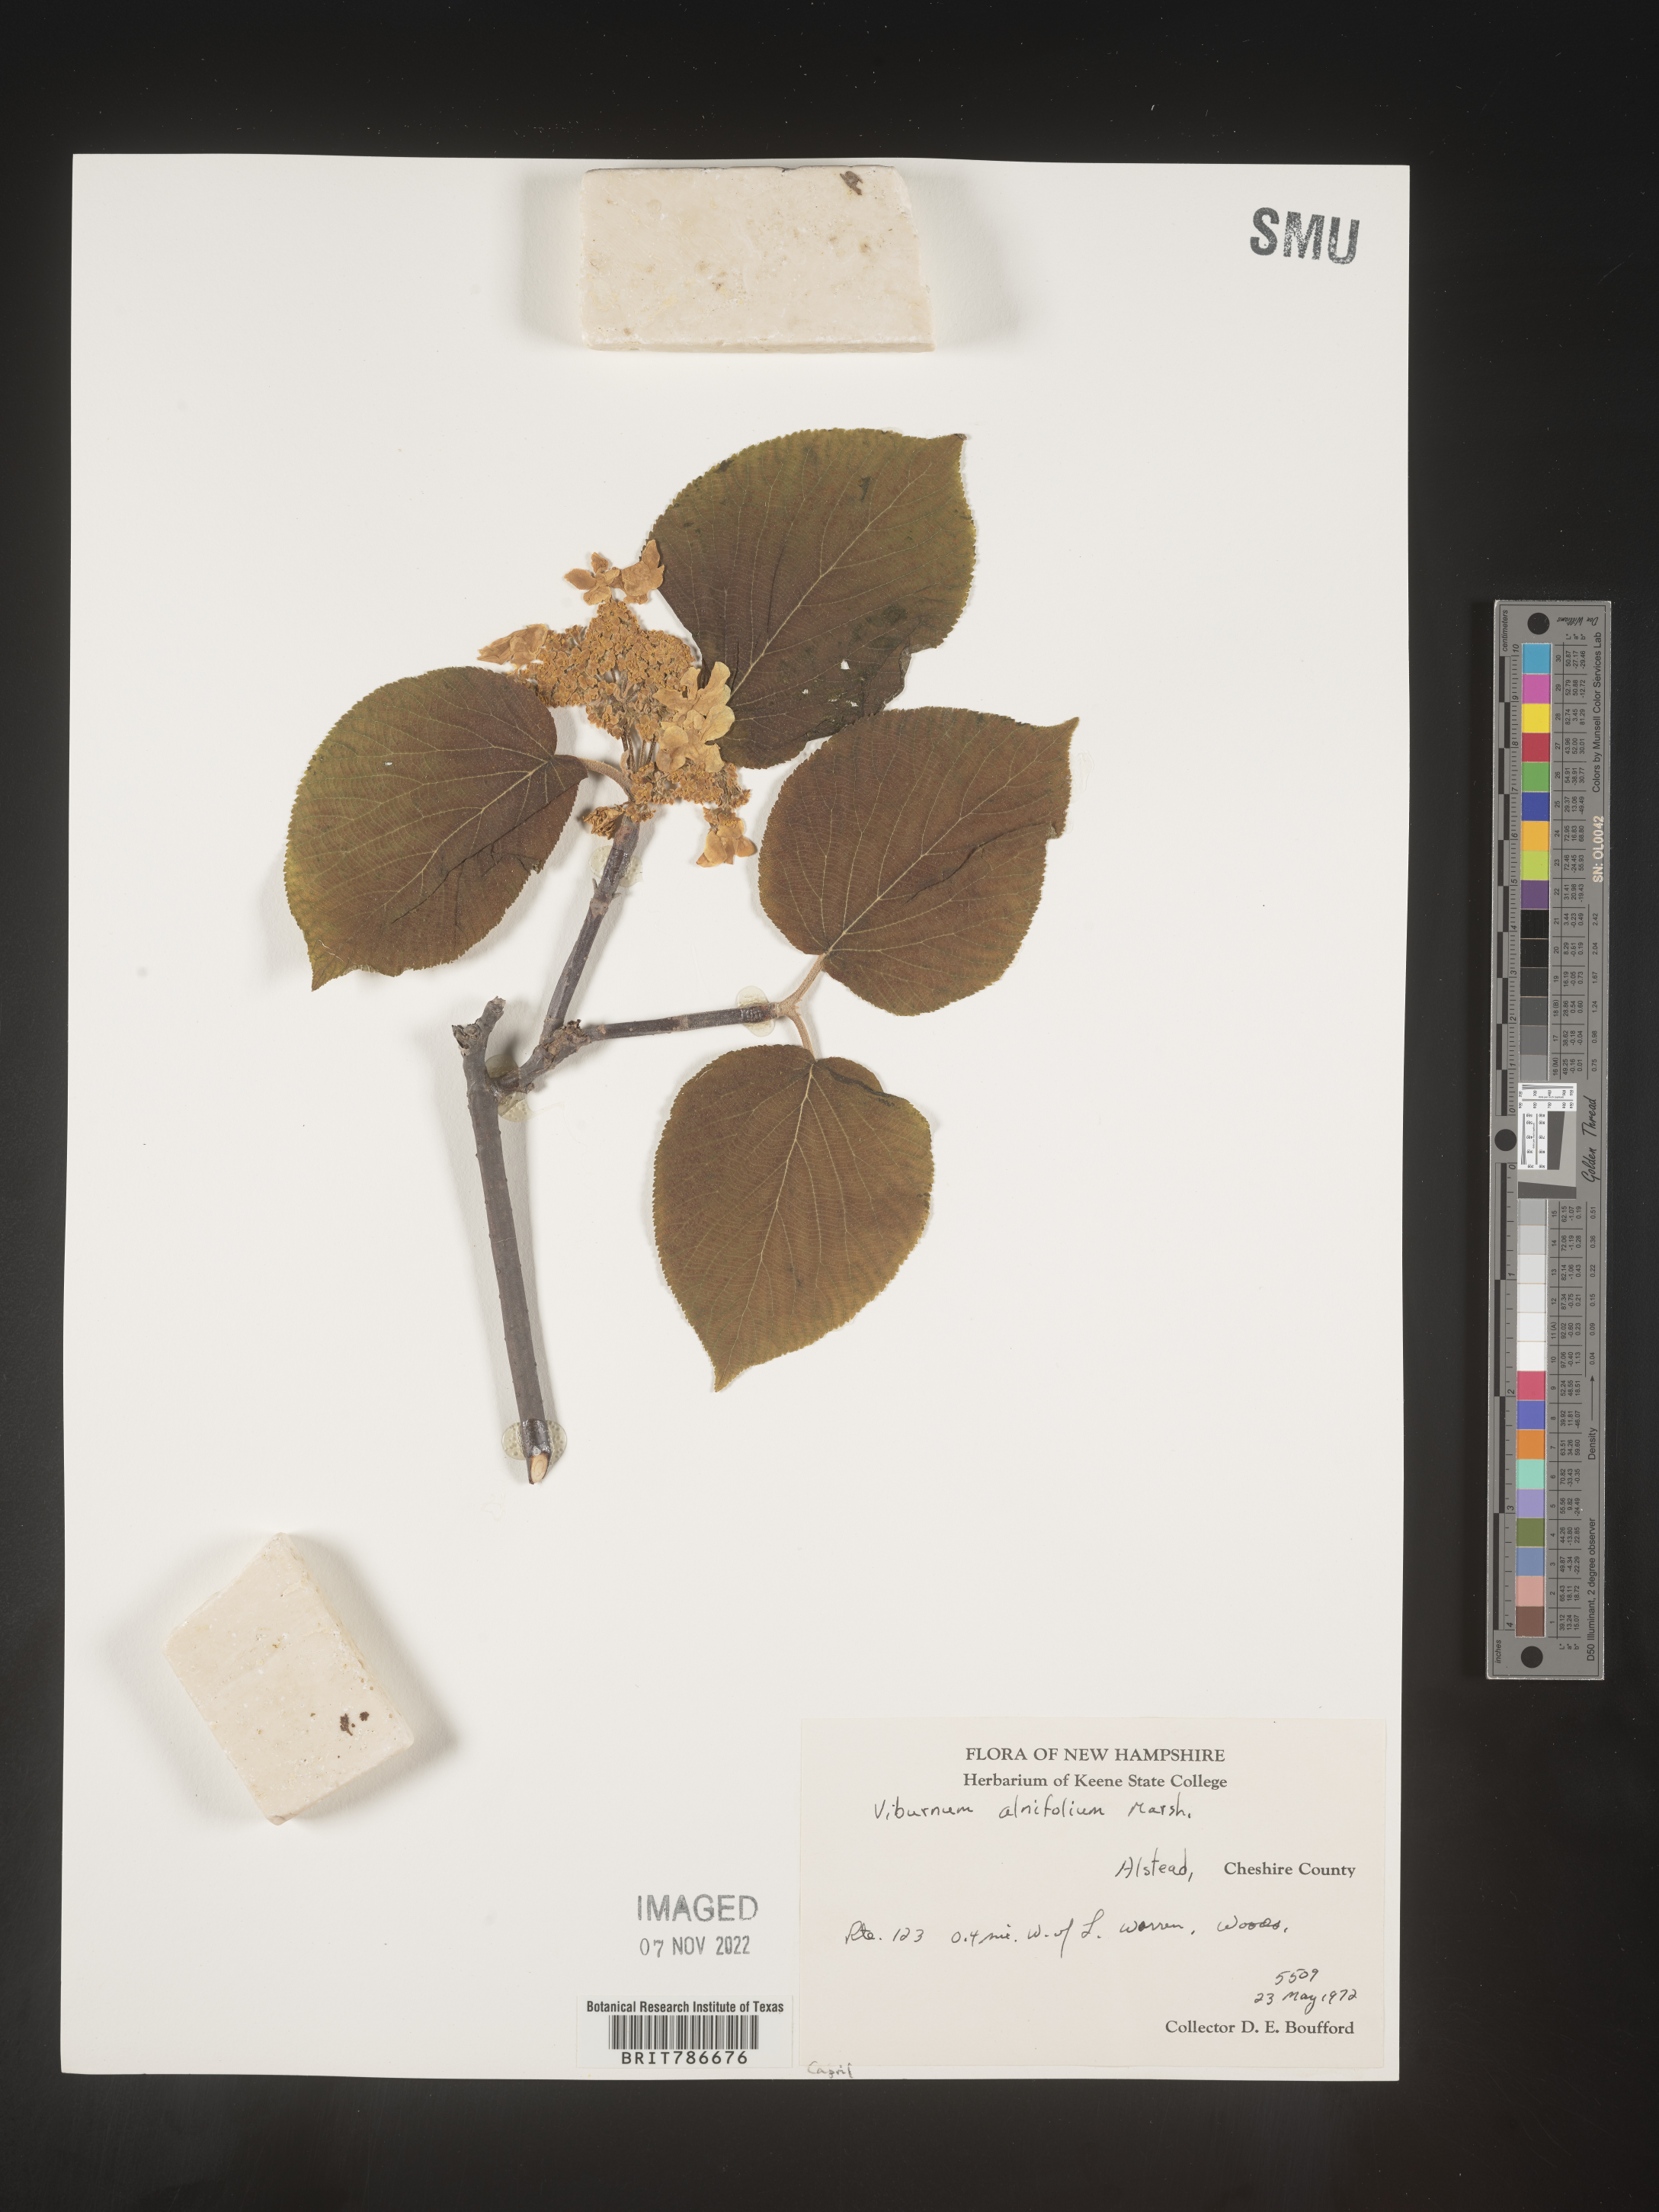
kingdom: Plantae
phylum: Tracheophyta
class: Magnoliopsida
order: Dipsacales
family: Viburnaceae
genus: Viburnum
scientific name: Viburnum lantanoides
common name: Hobblebush
